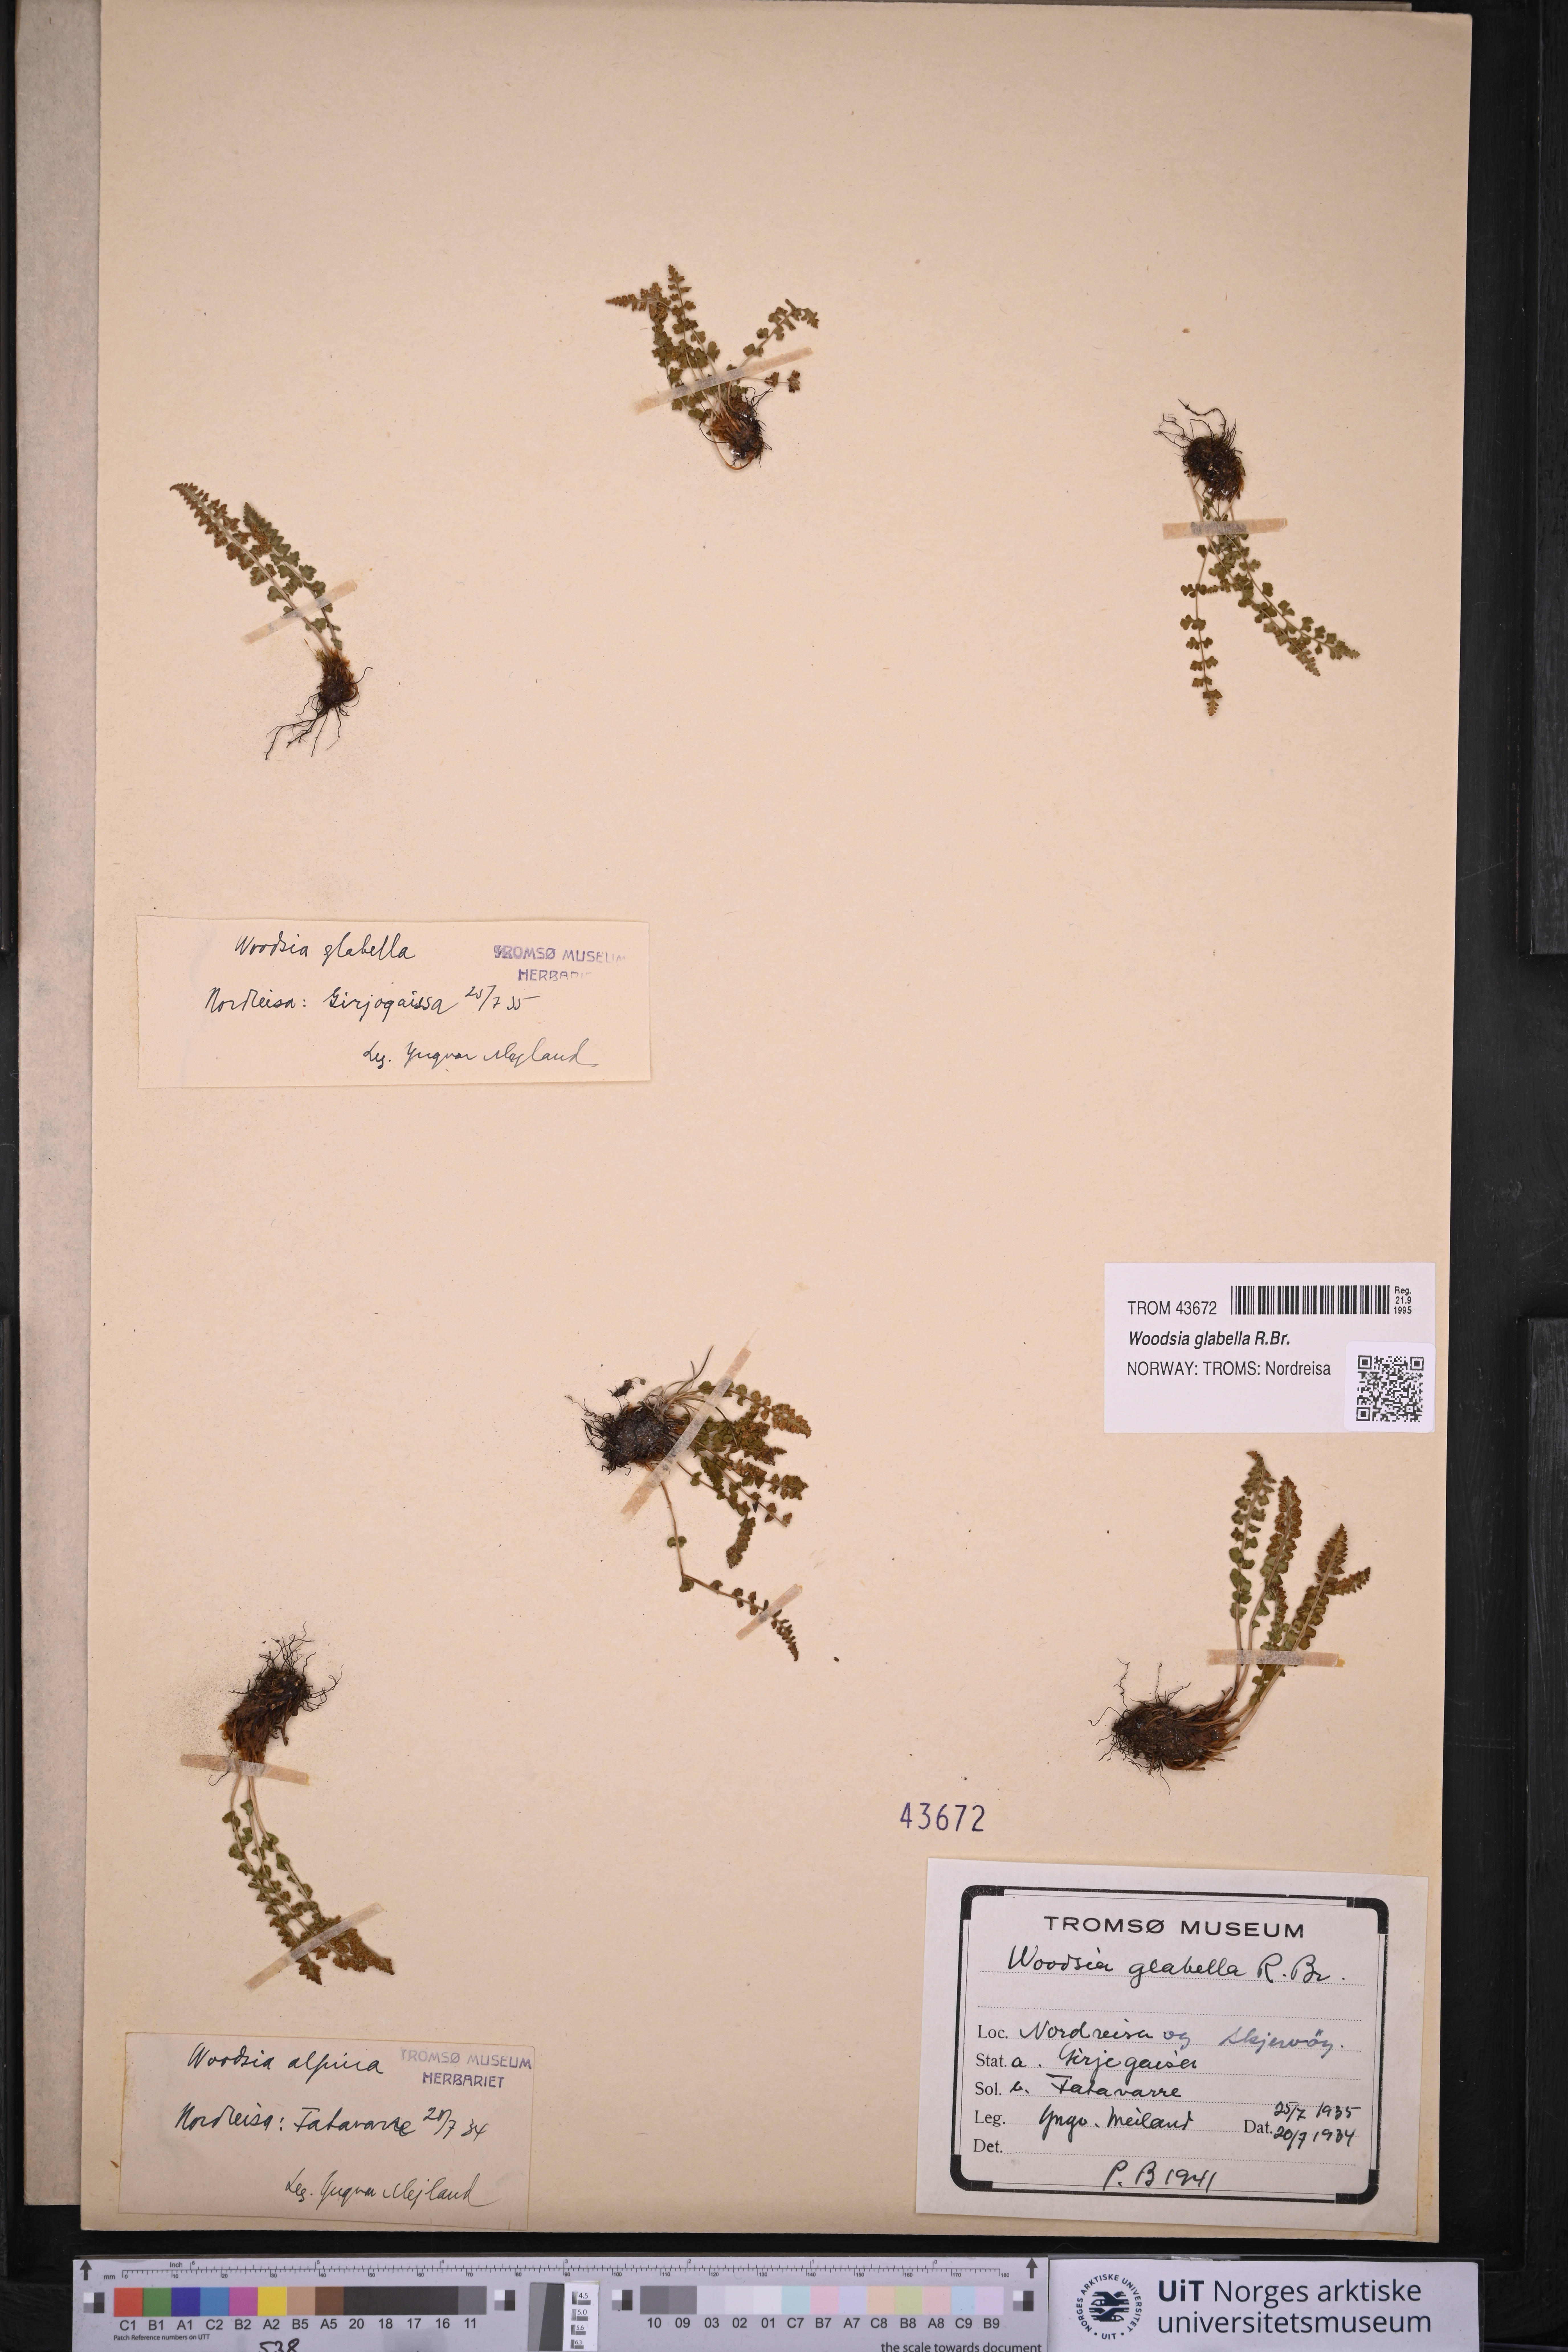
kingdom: Plantae
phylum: Tracheophyta
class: Polypodiopsida
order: Polypodiales
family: Woodsiaceae
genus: Woodsia
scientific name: Woodsia glabella
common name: Smooth woodsia
